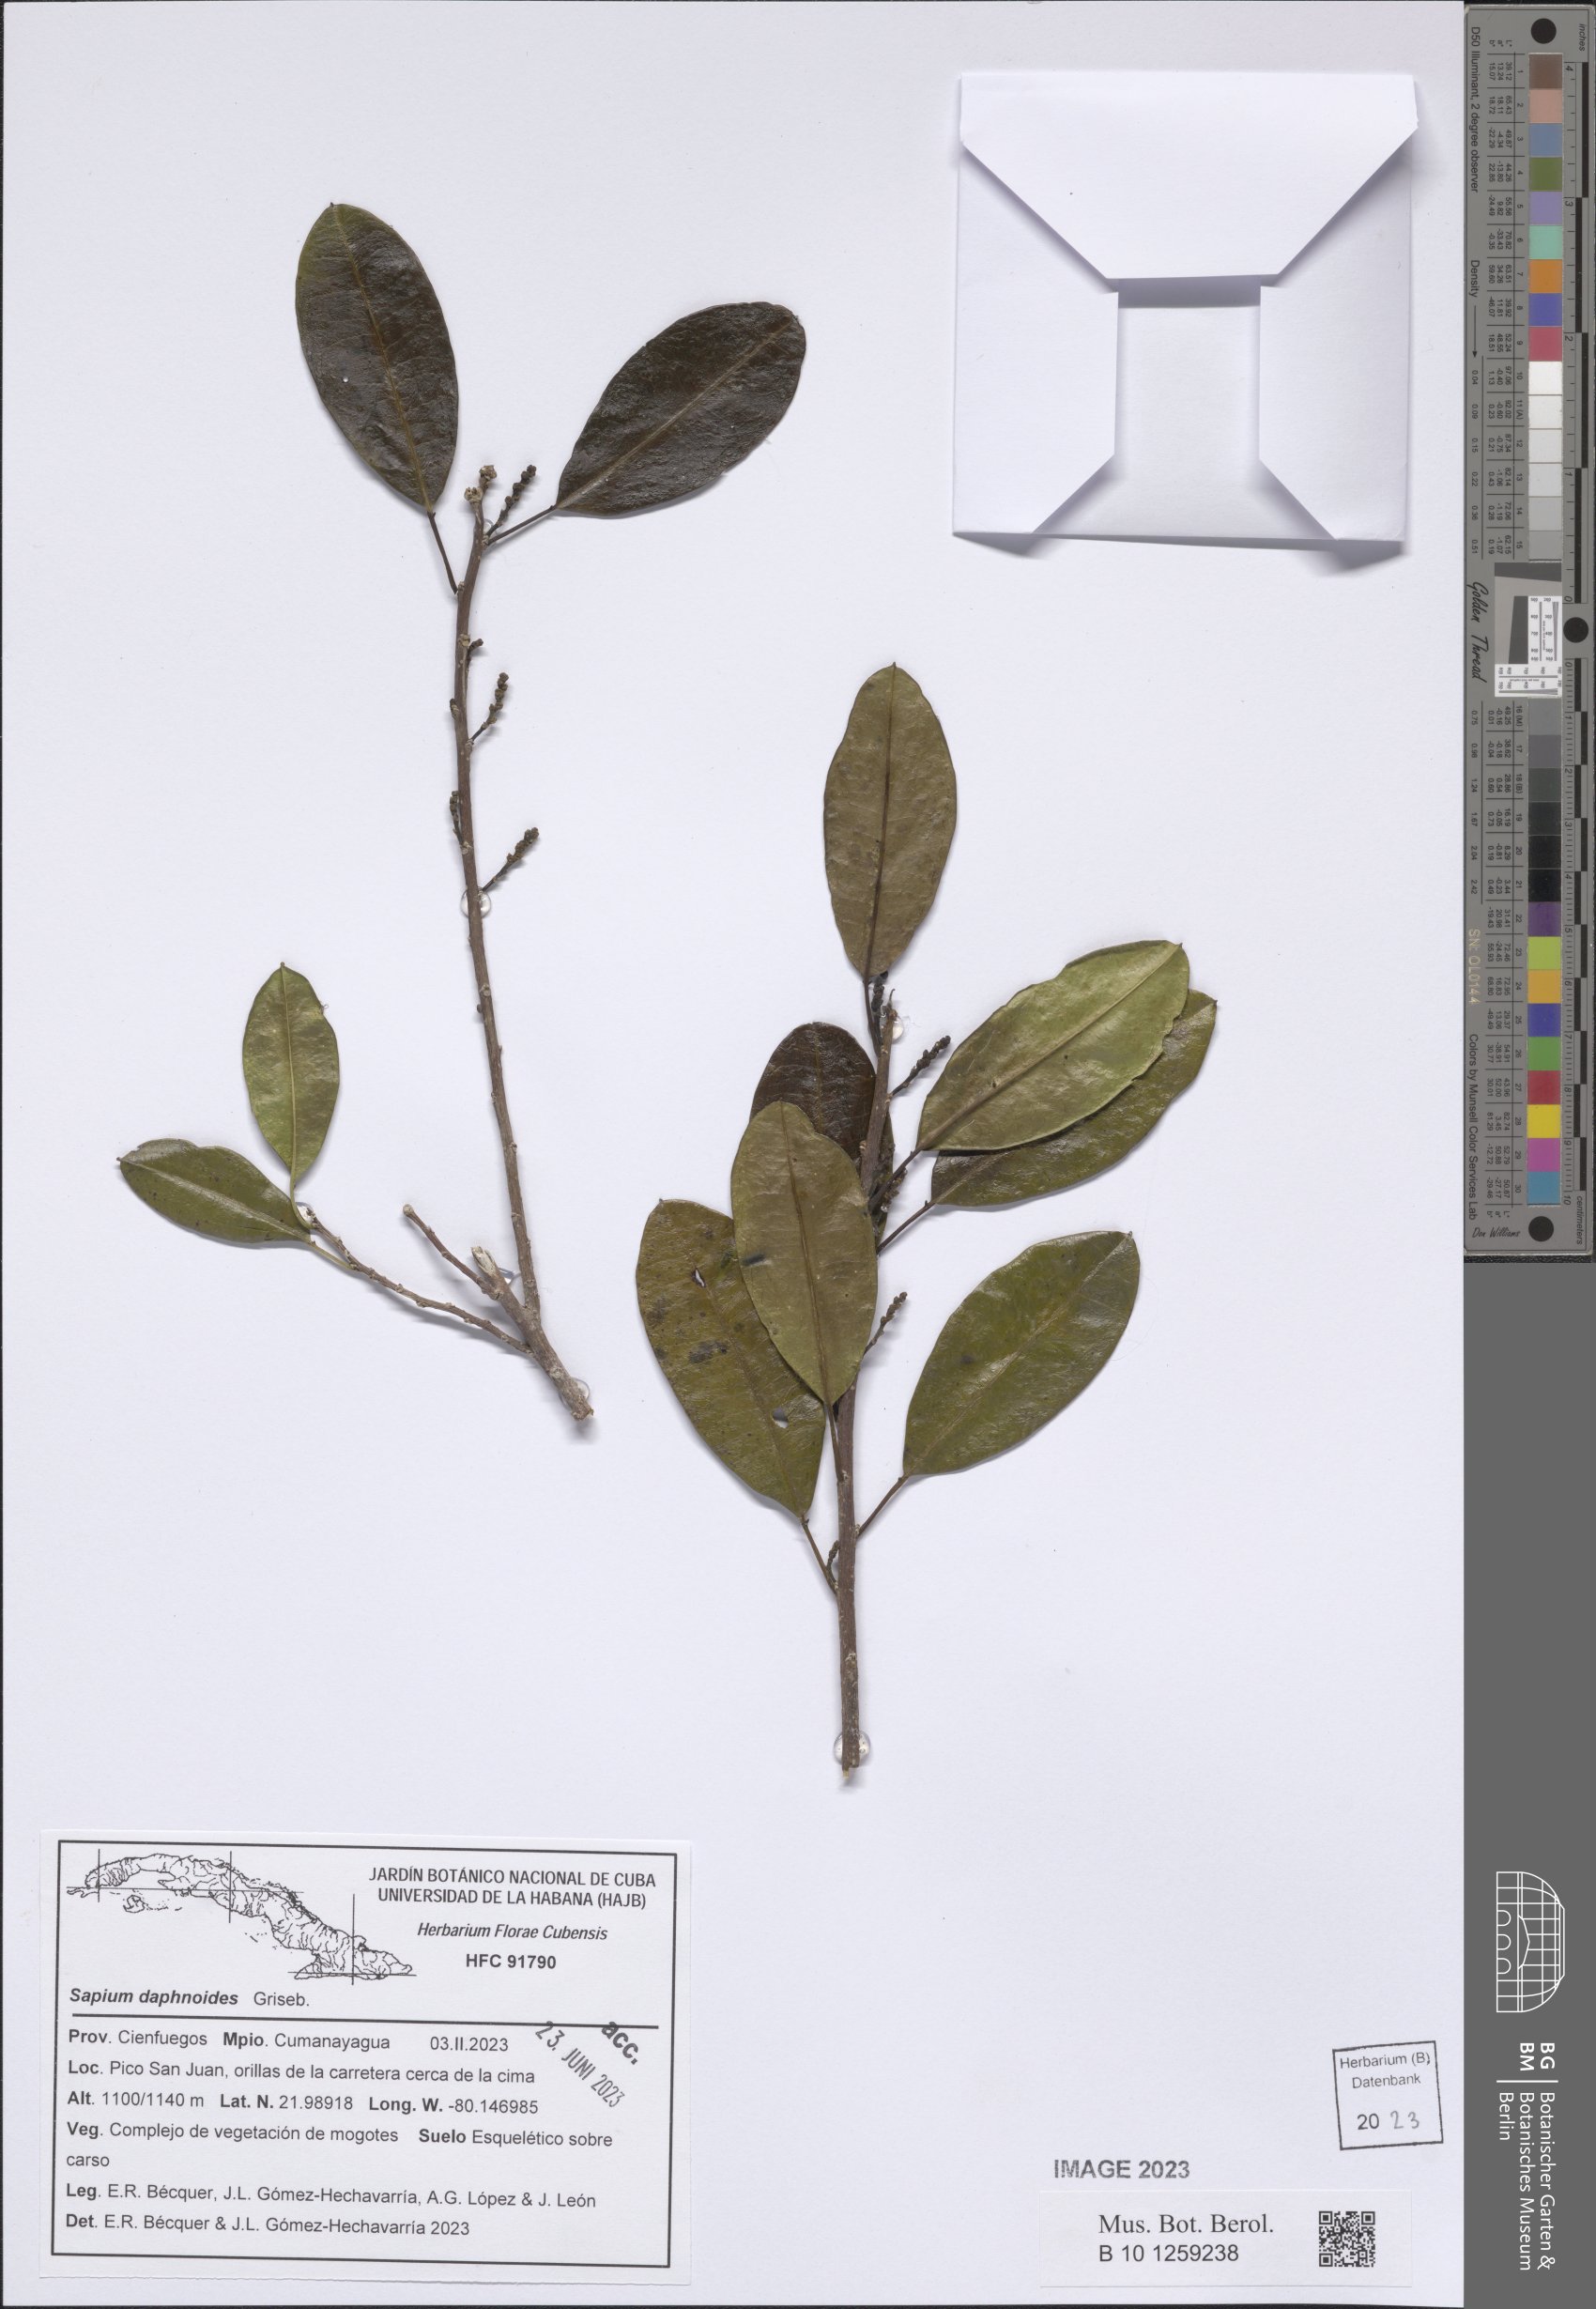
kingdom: Plantae
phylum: Tracheophyta
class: Magnoliopsida
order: Malpighiales
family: Euphorbiaceae
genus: Sapium
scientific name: Sapium daphnoides
